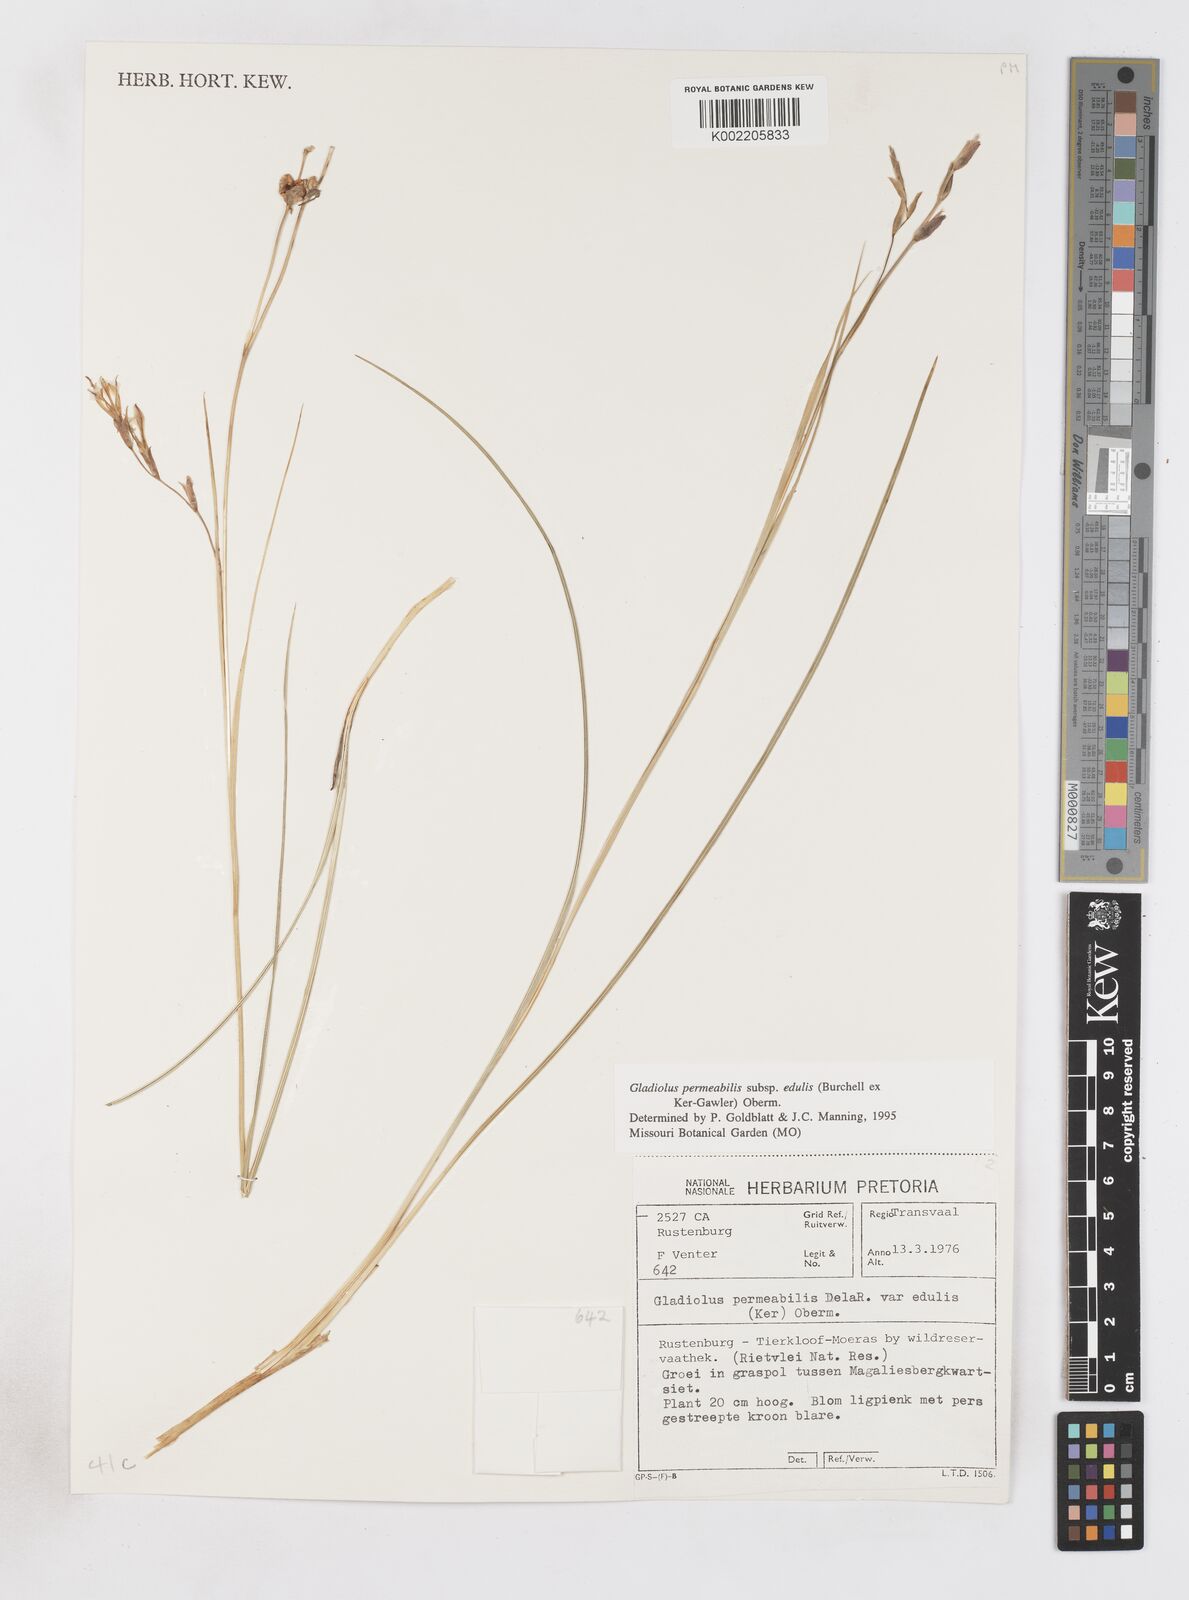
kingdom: Plantae
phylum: Tracheophyta
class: Liliopsida
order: Asparagales
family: Iridaceae
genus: Gladiolus
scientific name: Gladiolus permeabilis
